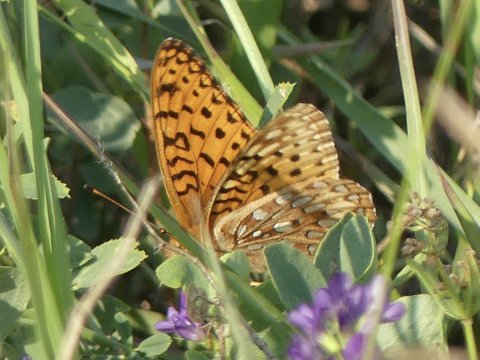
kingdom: Animalia
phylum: Arthropoda
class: Insecta
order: Lepidoptera
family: Nymphalidae
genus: Speyeria
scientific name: Speyeria aphrodite
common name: Aphrodite Fritillary
